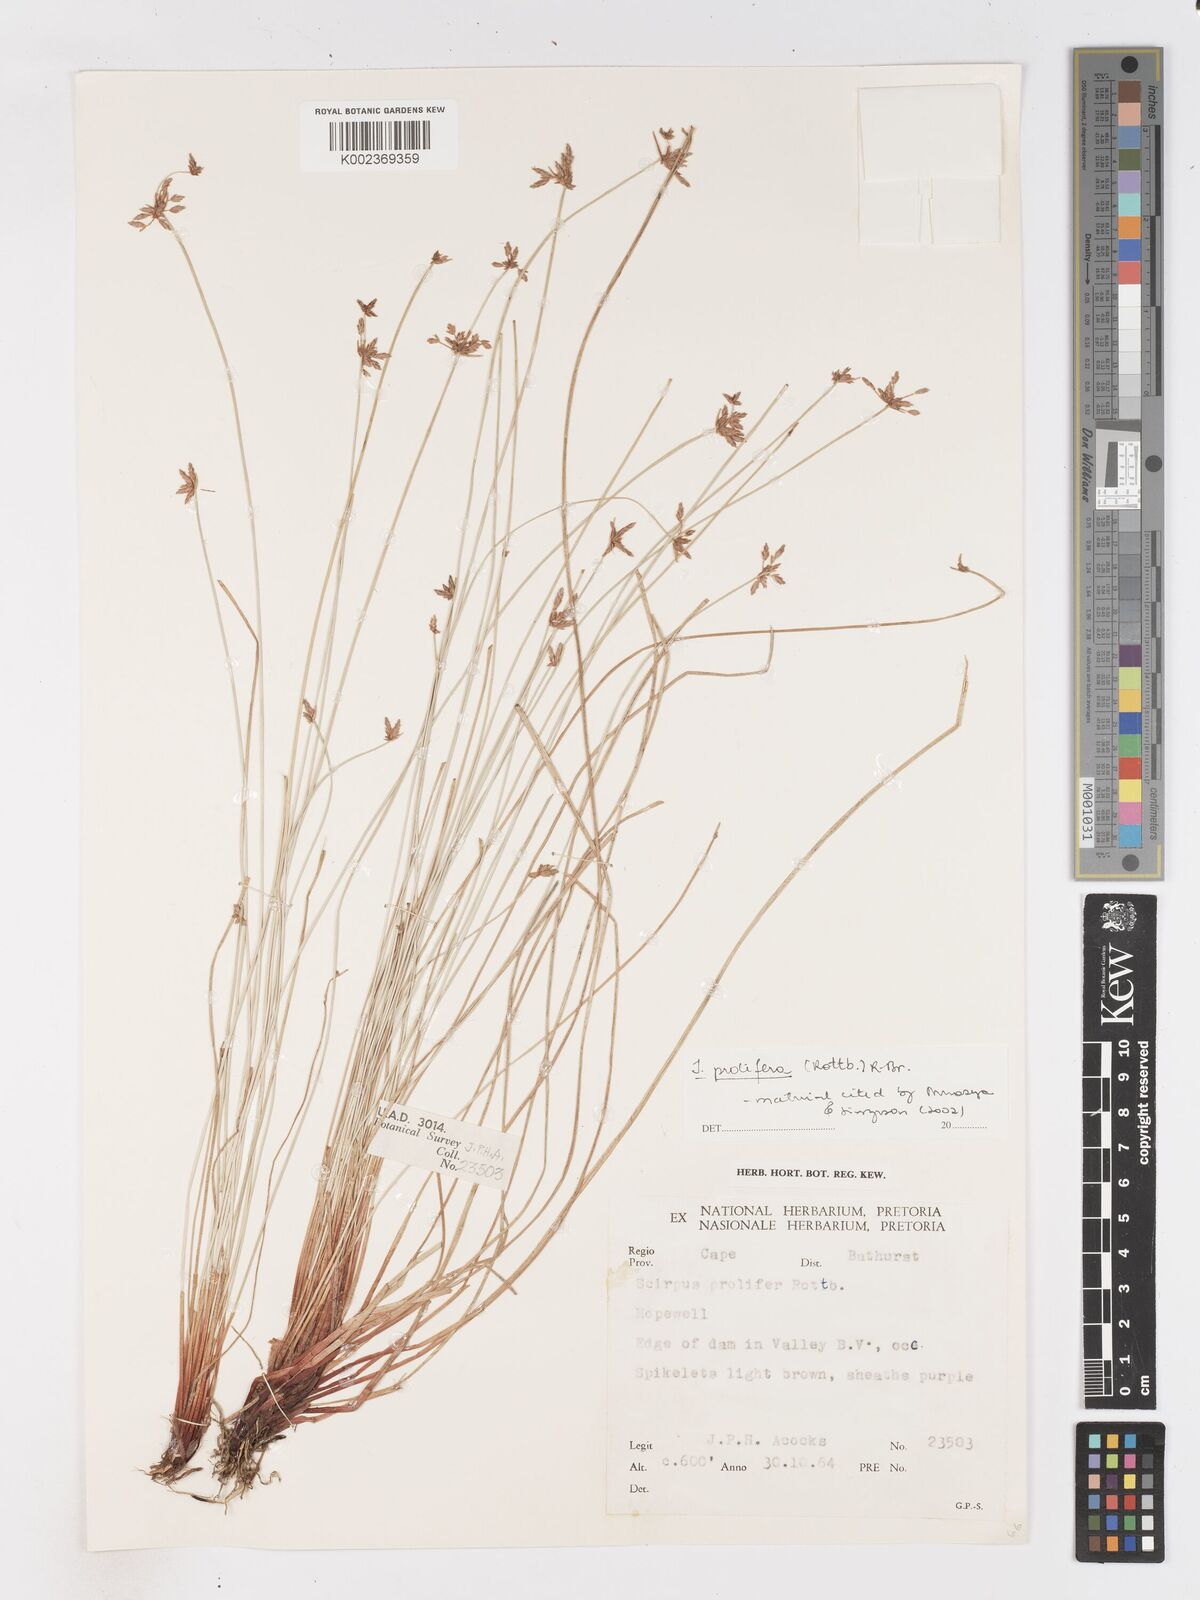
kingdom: Plantae
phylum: Tracheophyta
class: Liliopsida
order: Poales
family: Cyperaceae
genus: Isolepis
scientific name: Isolepis prolifera
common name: Proliferating bulrush
